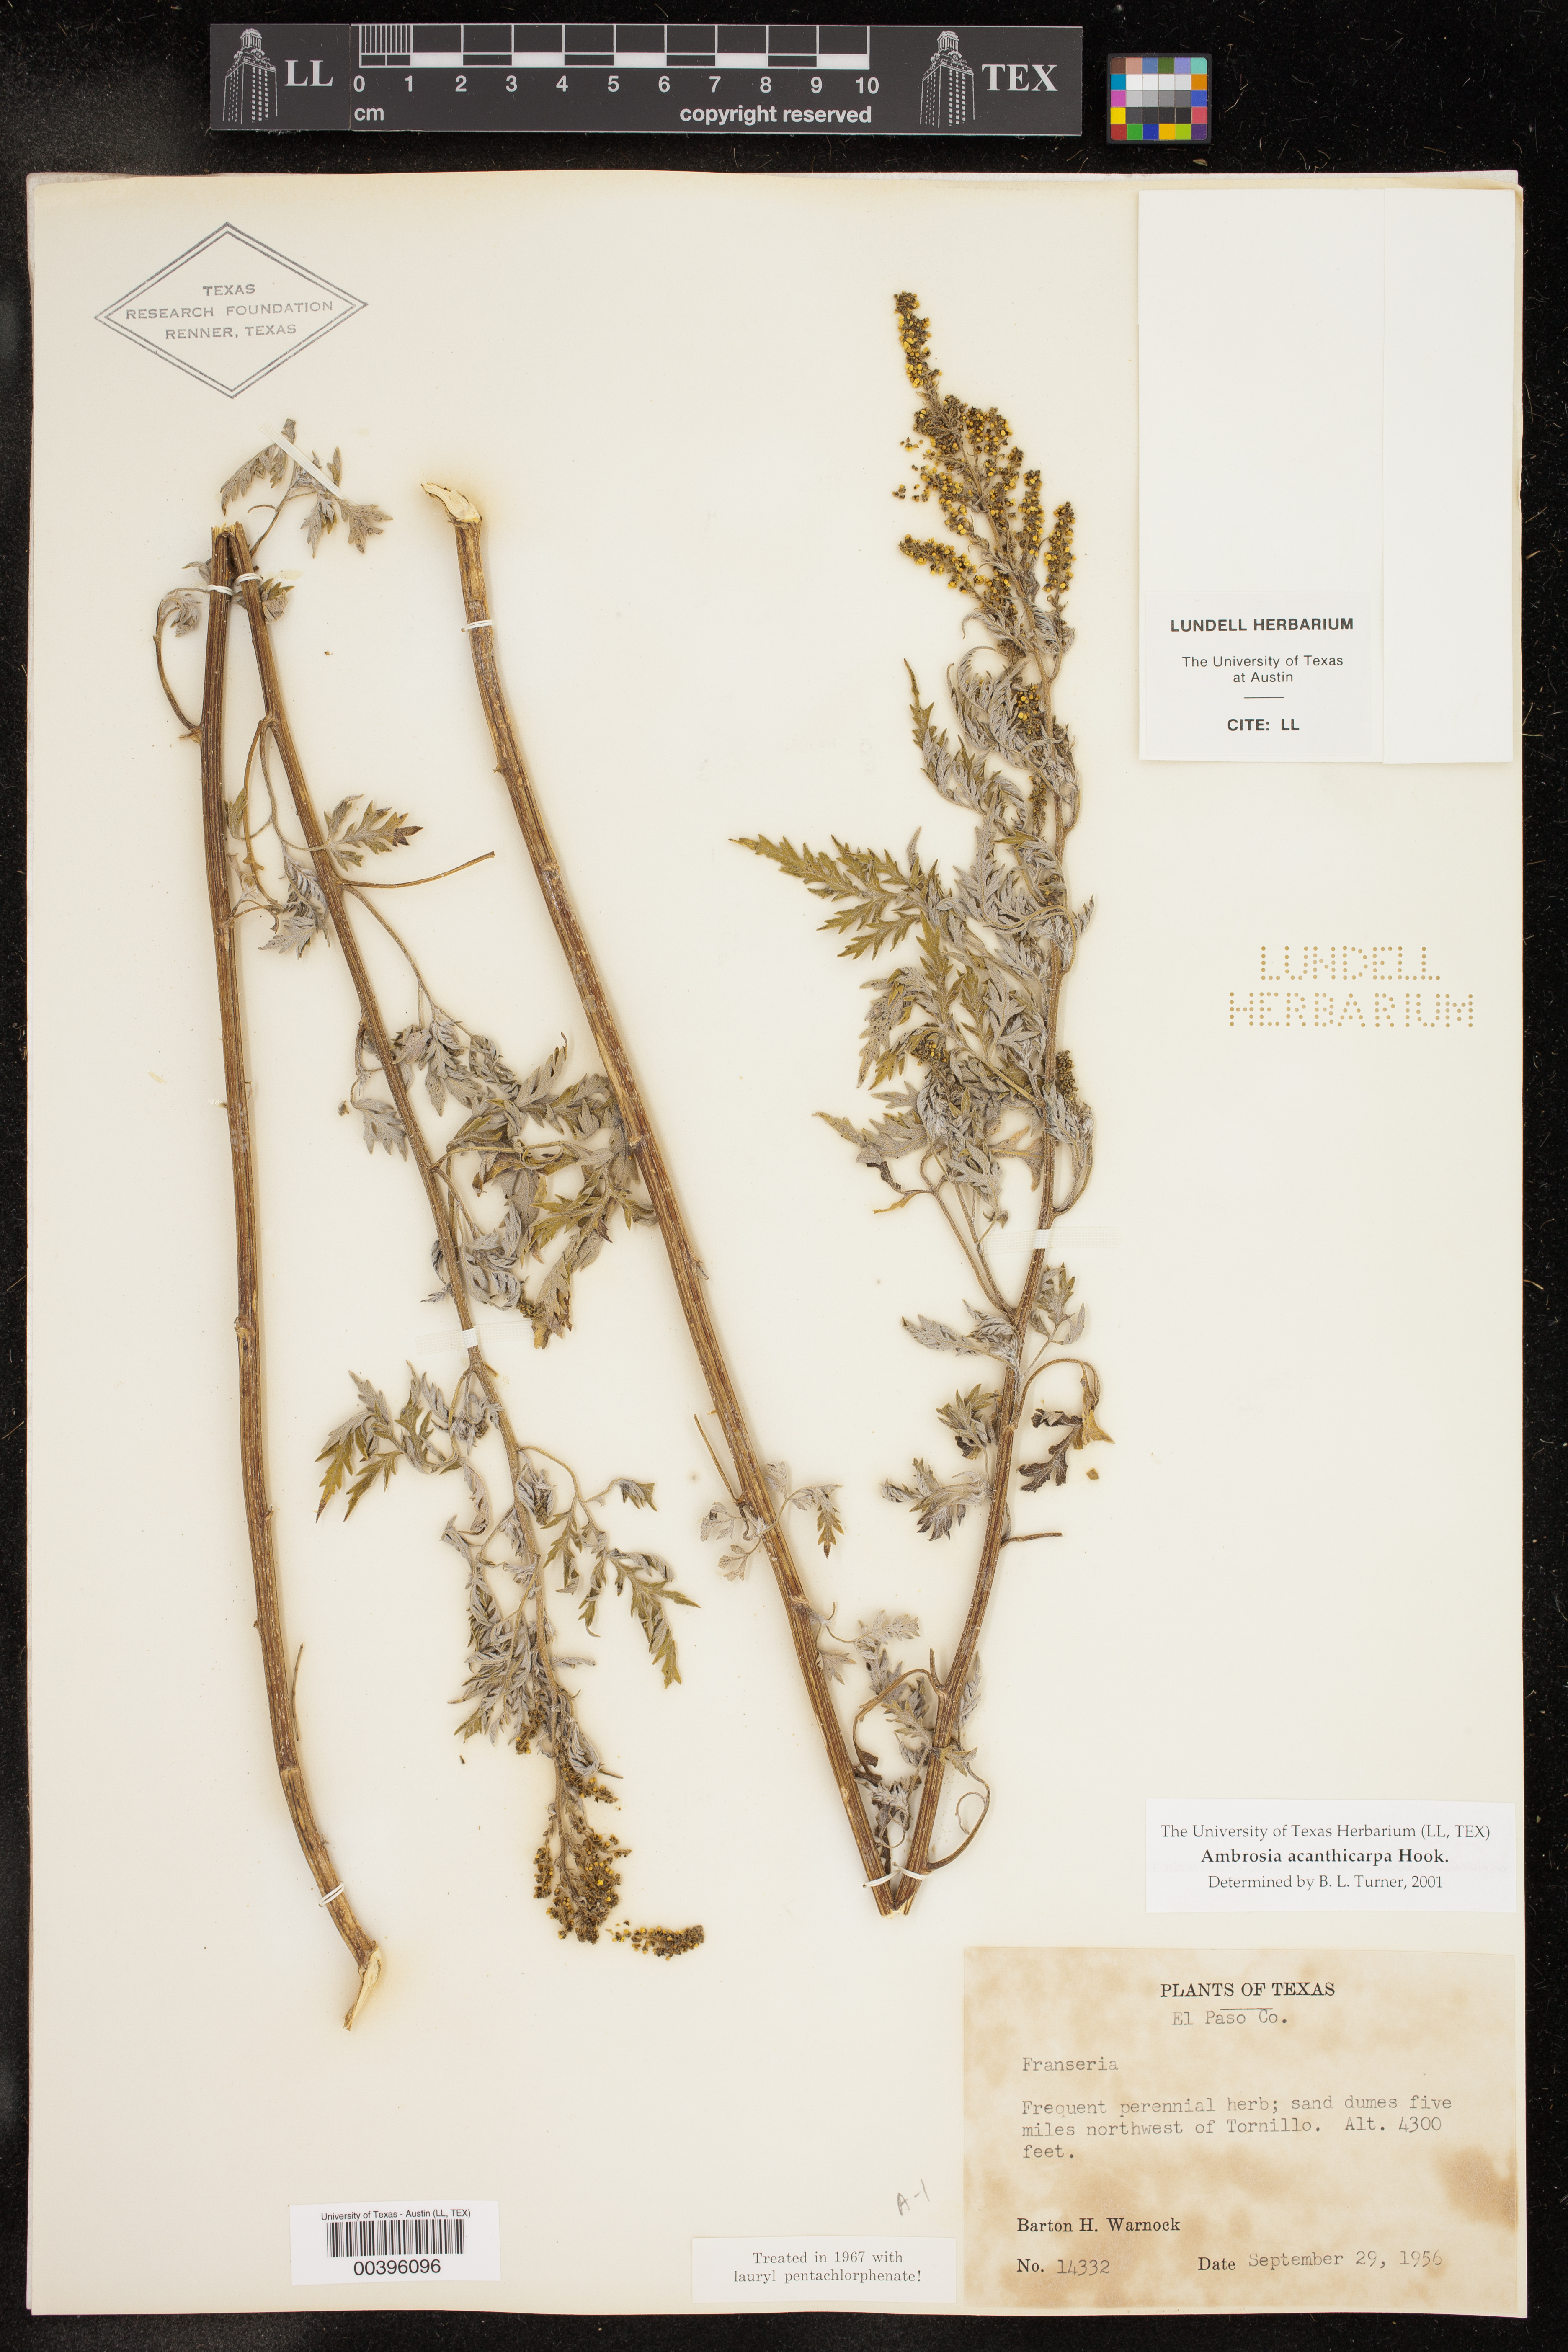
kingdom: Plantae
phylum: Tracheophyta
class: Magnoliopsida
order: Asterales
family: Asteraceae
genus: Ambrosia
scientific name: Ambrosia acanthicarpa
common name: Hooker's bur ragweed
